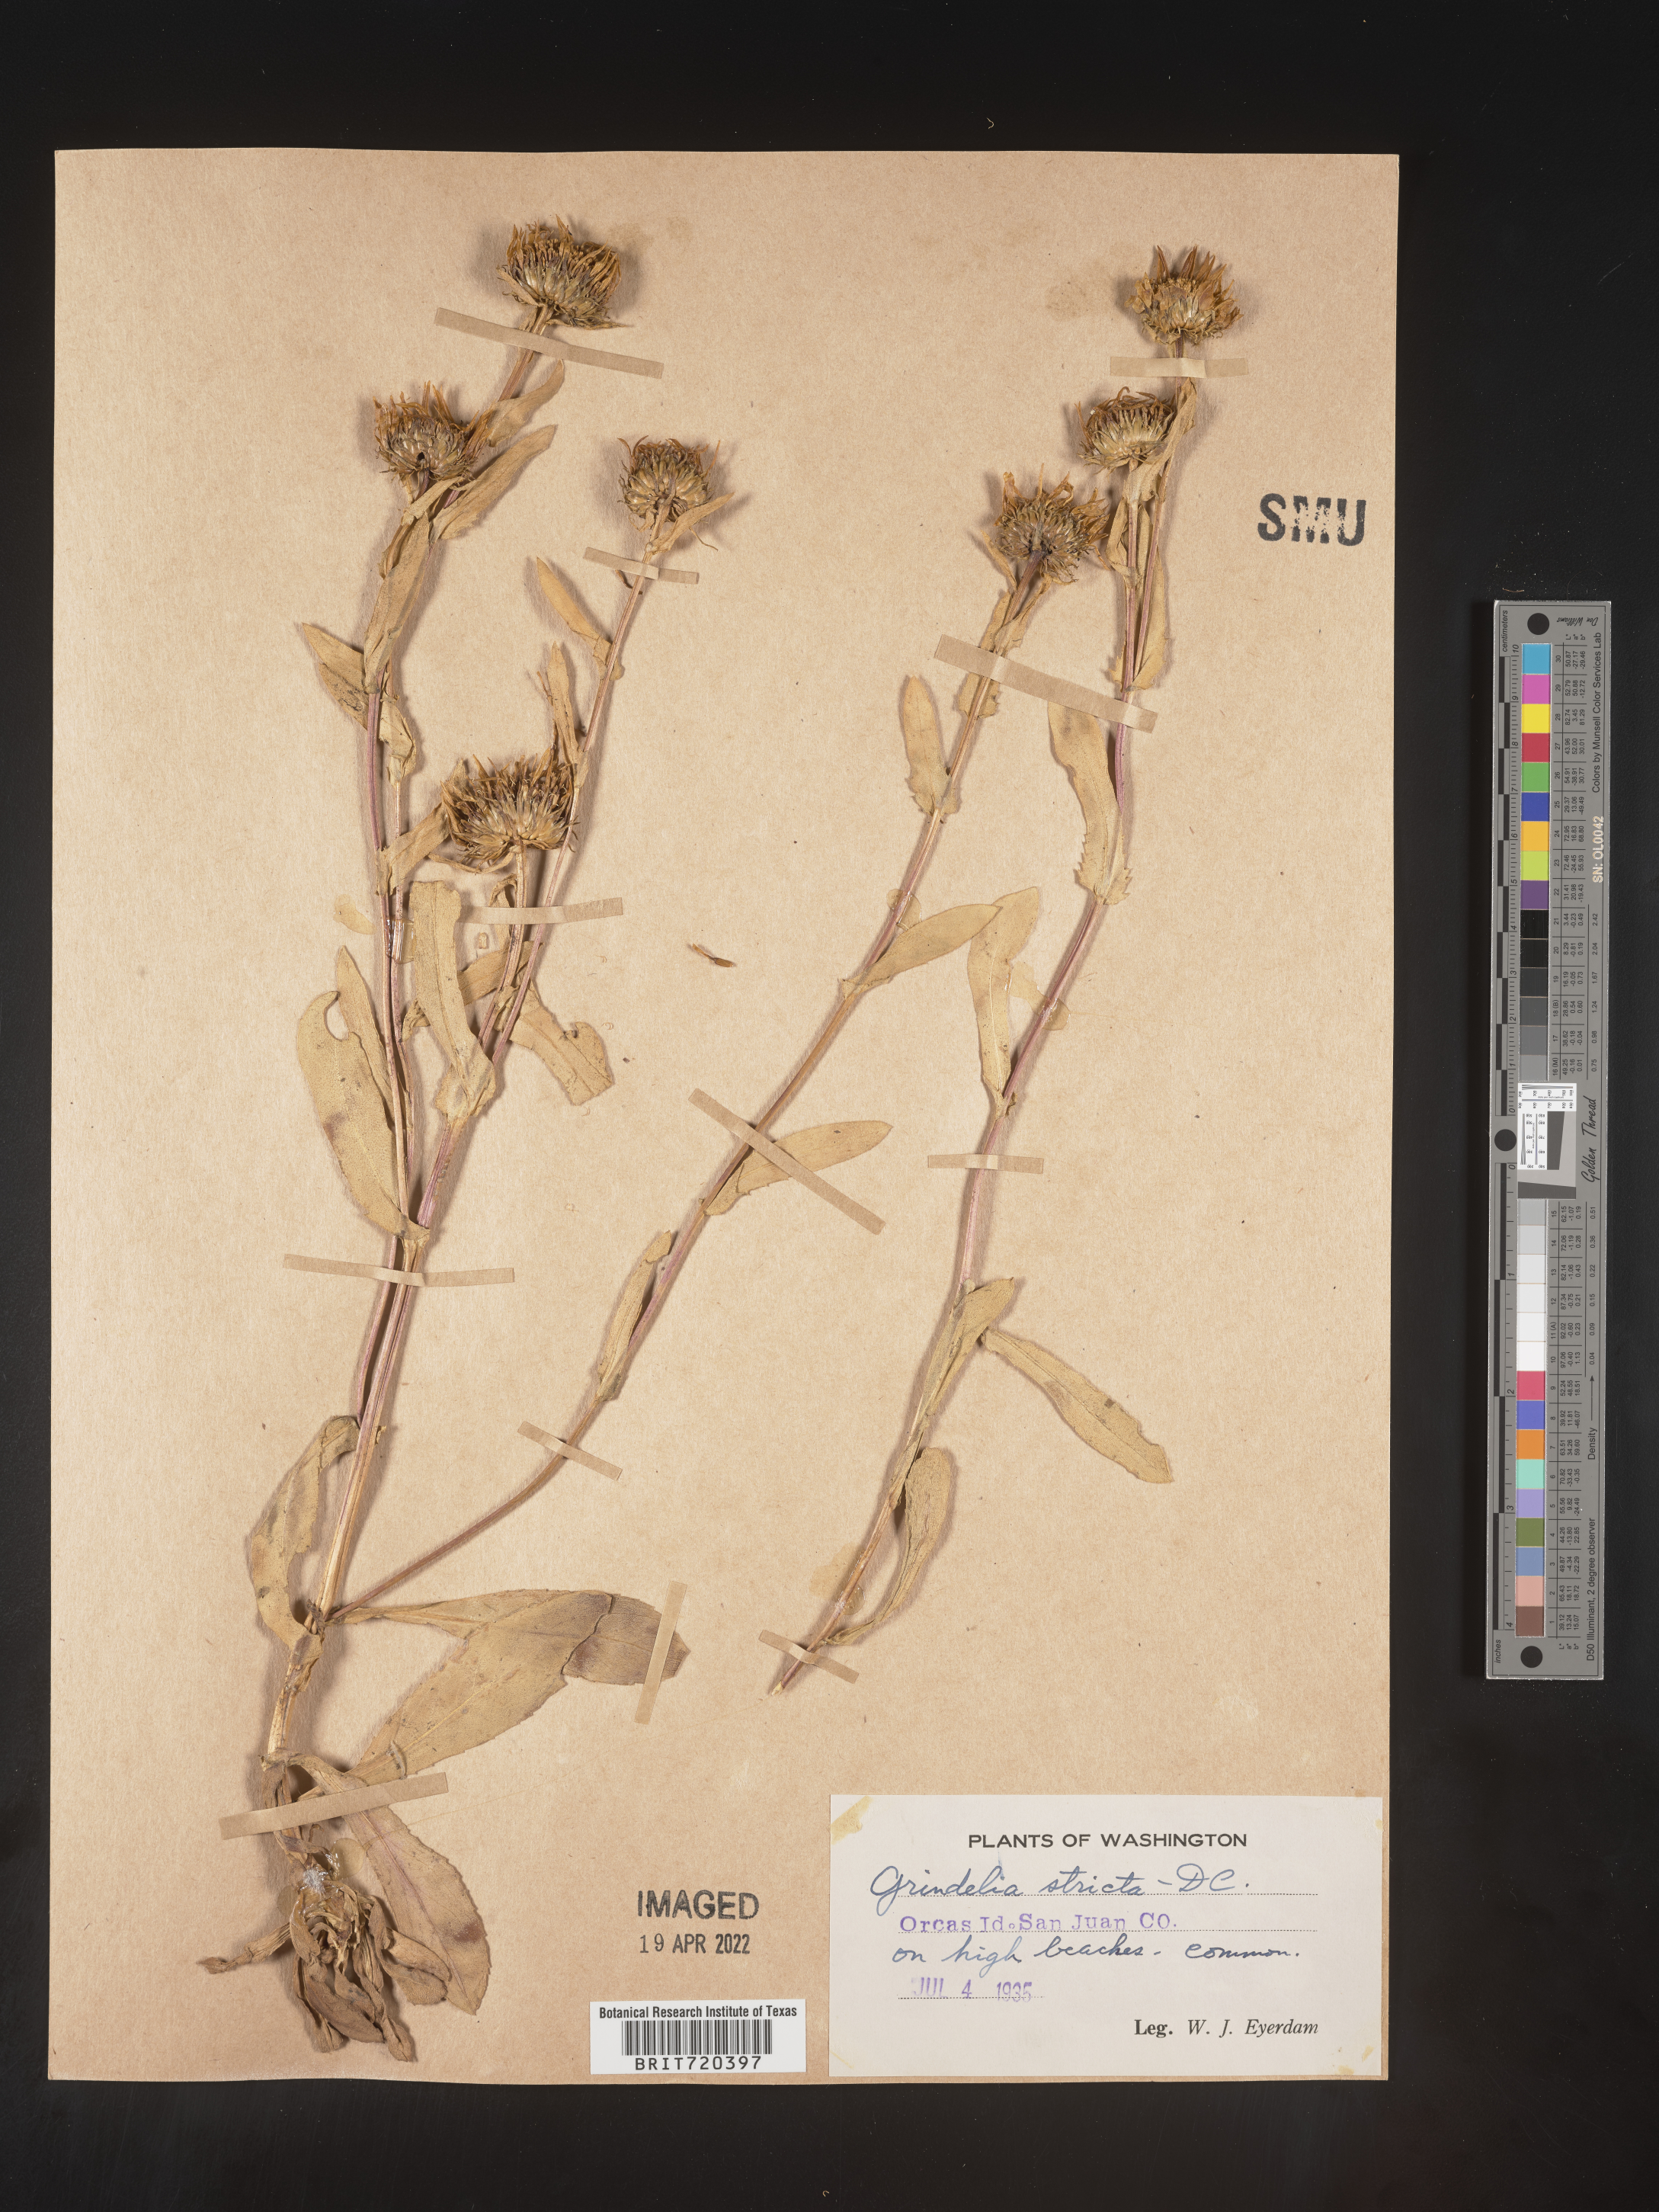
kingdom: Plantae
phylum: Tracheophyta
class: Magnoliopsida
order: Asterales
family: Asteraceae
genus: Grindelia
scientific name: Grindelia hirsutula
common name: Hairy gumweed
